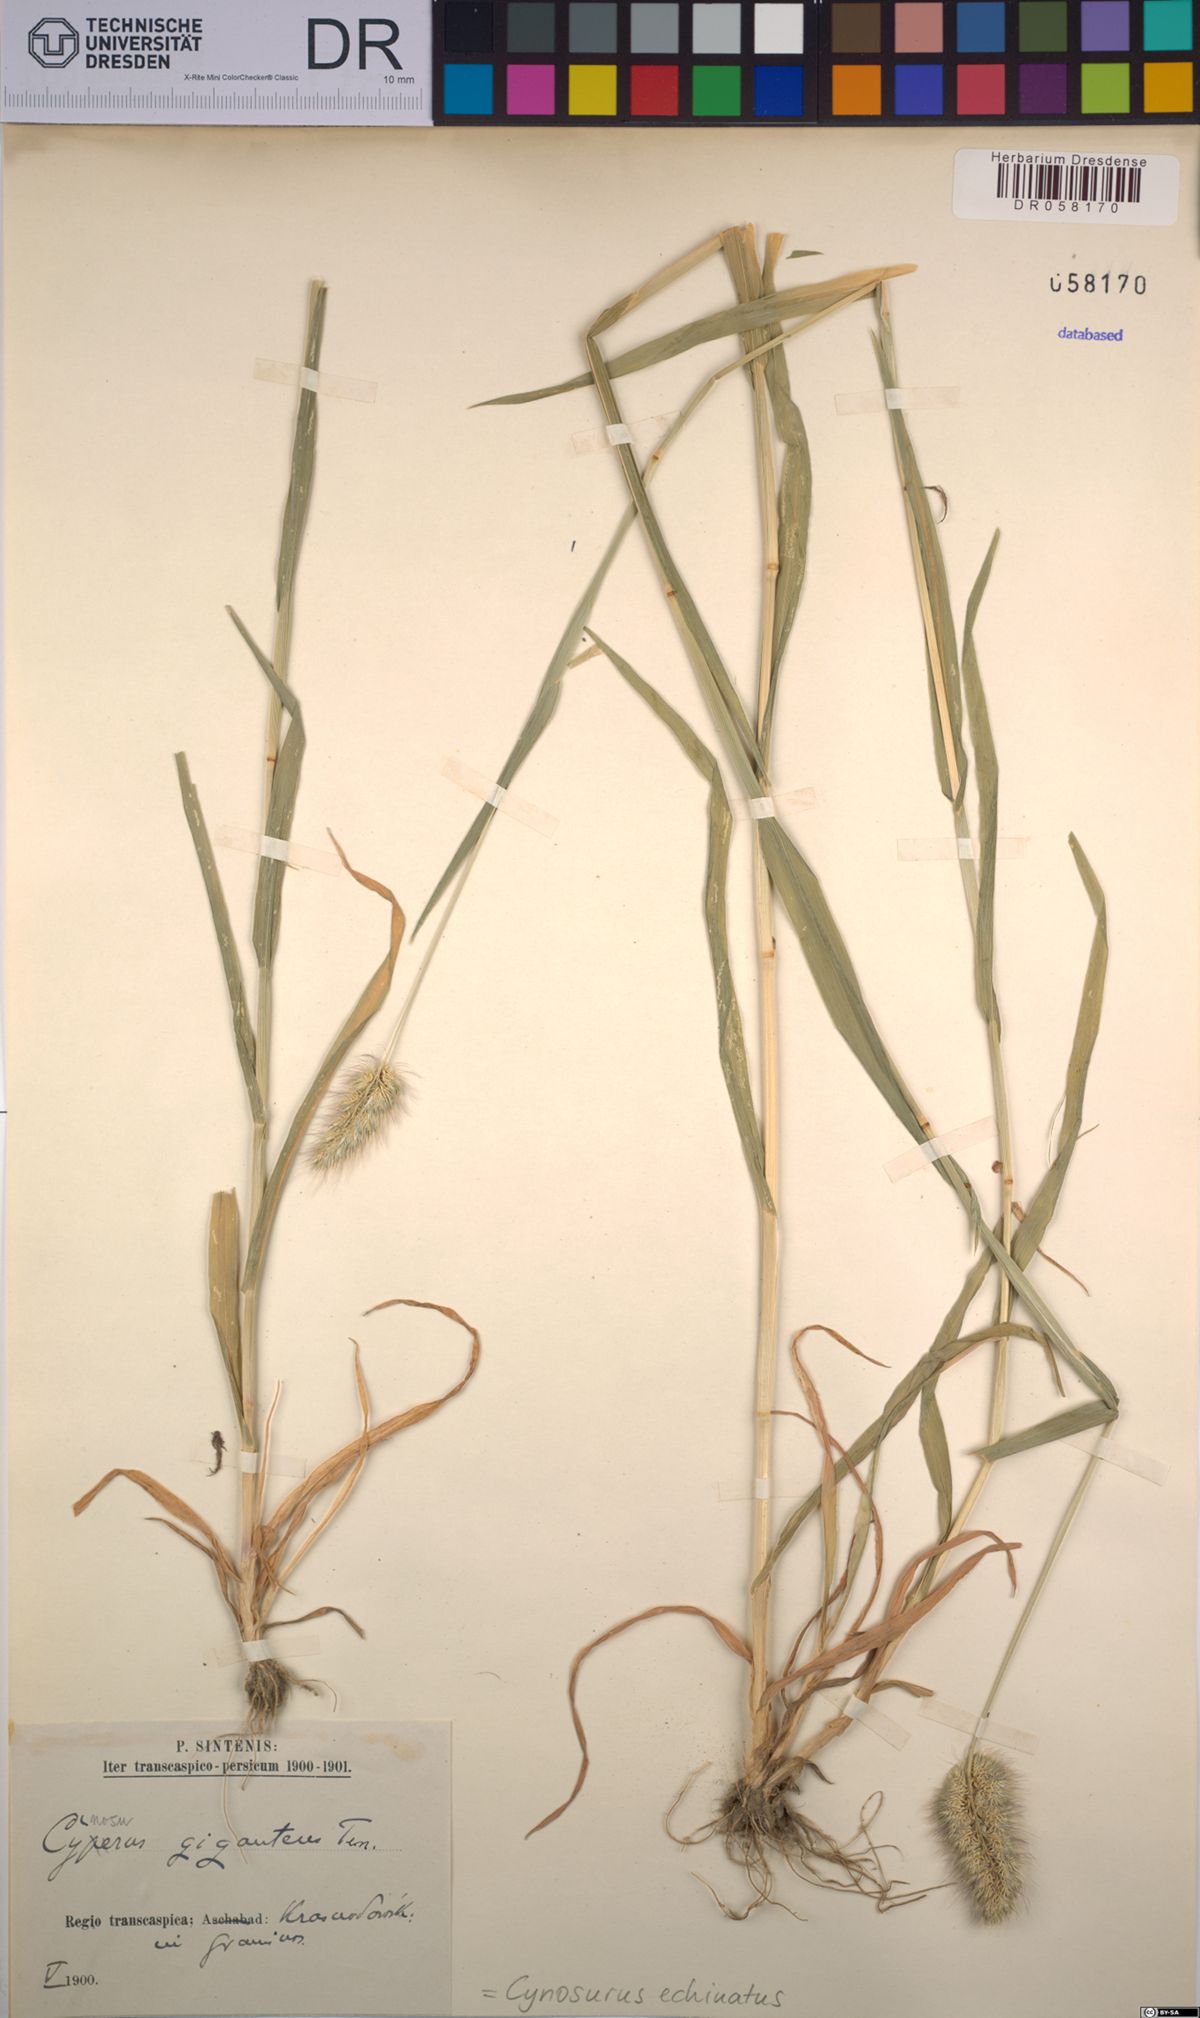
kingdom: Plantae
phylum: Tracheophyta
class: Liliopsida
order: Poales
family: Poaceae
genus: Cynosurus
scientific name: Cynosurus echinatus
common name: Rough dog's-tail
